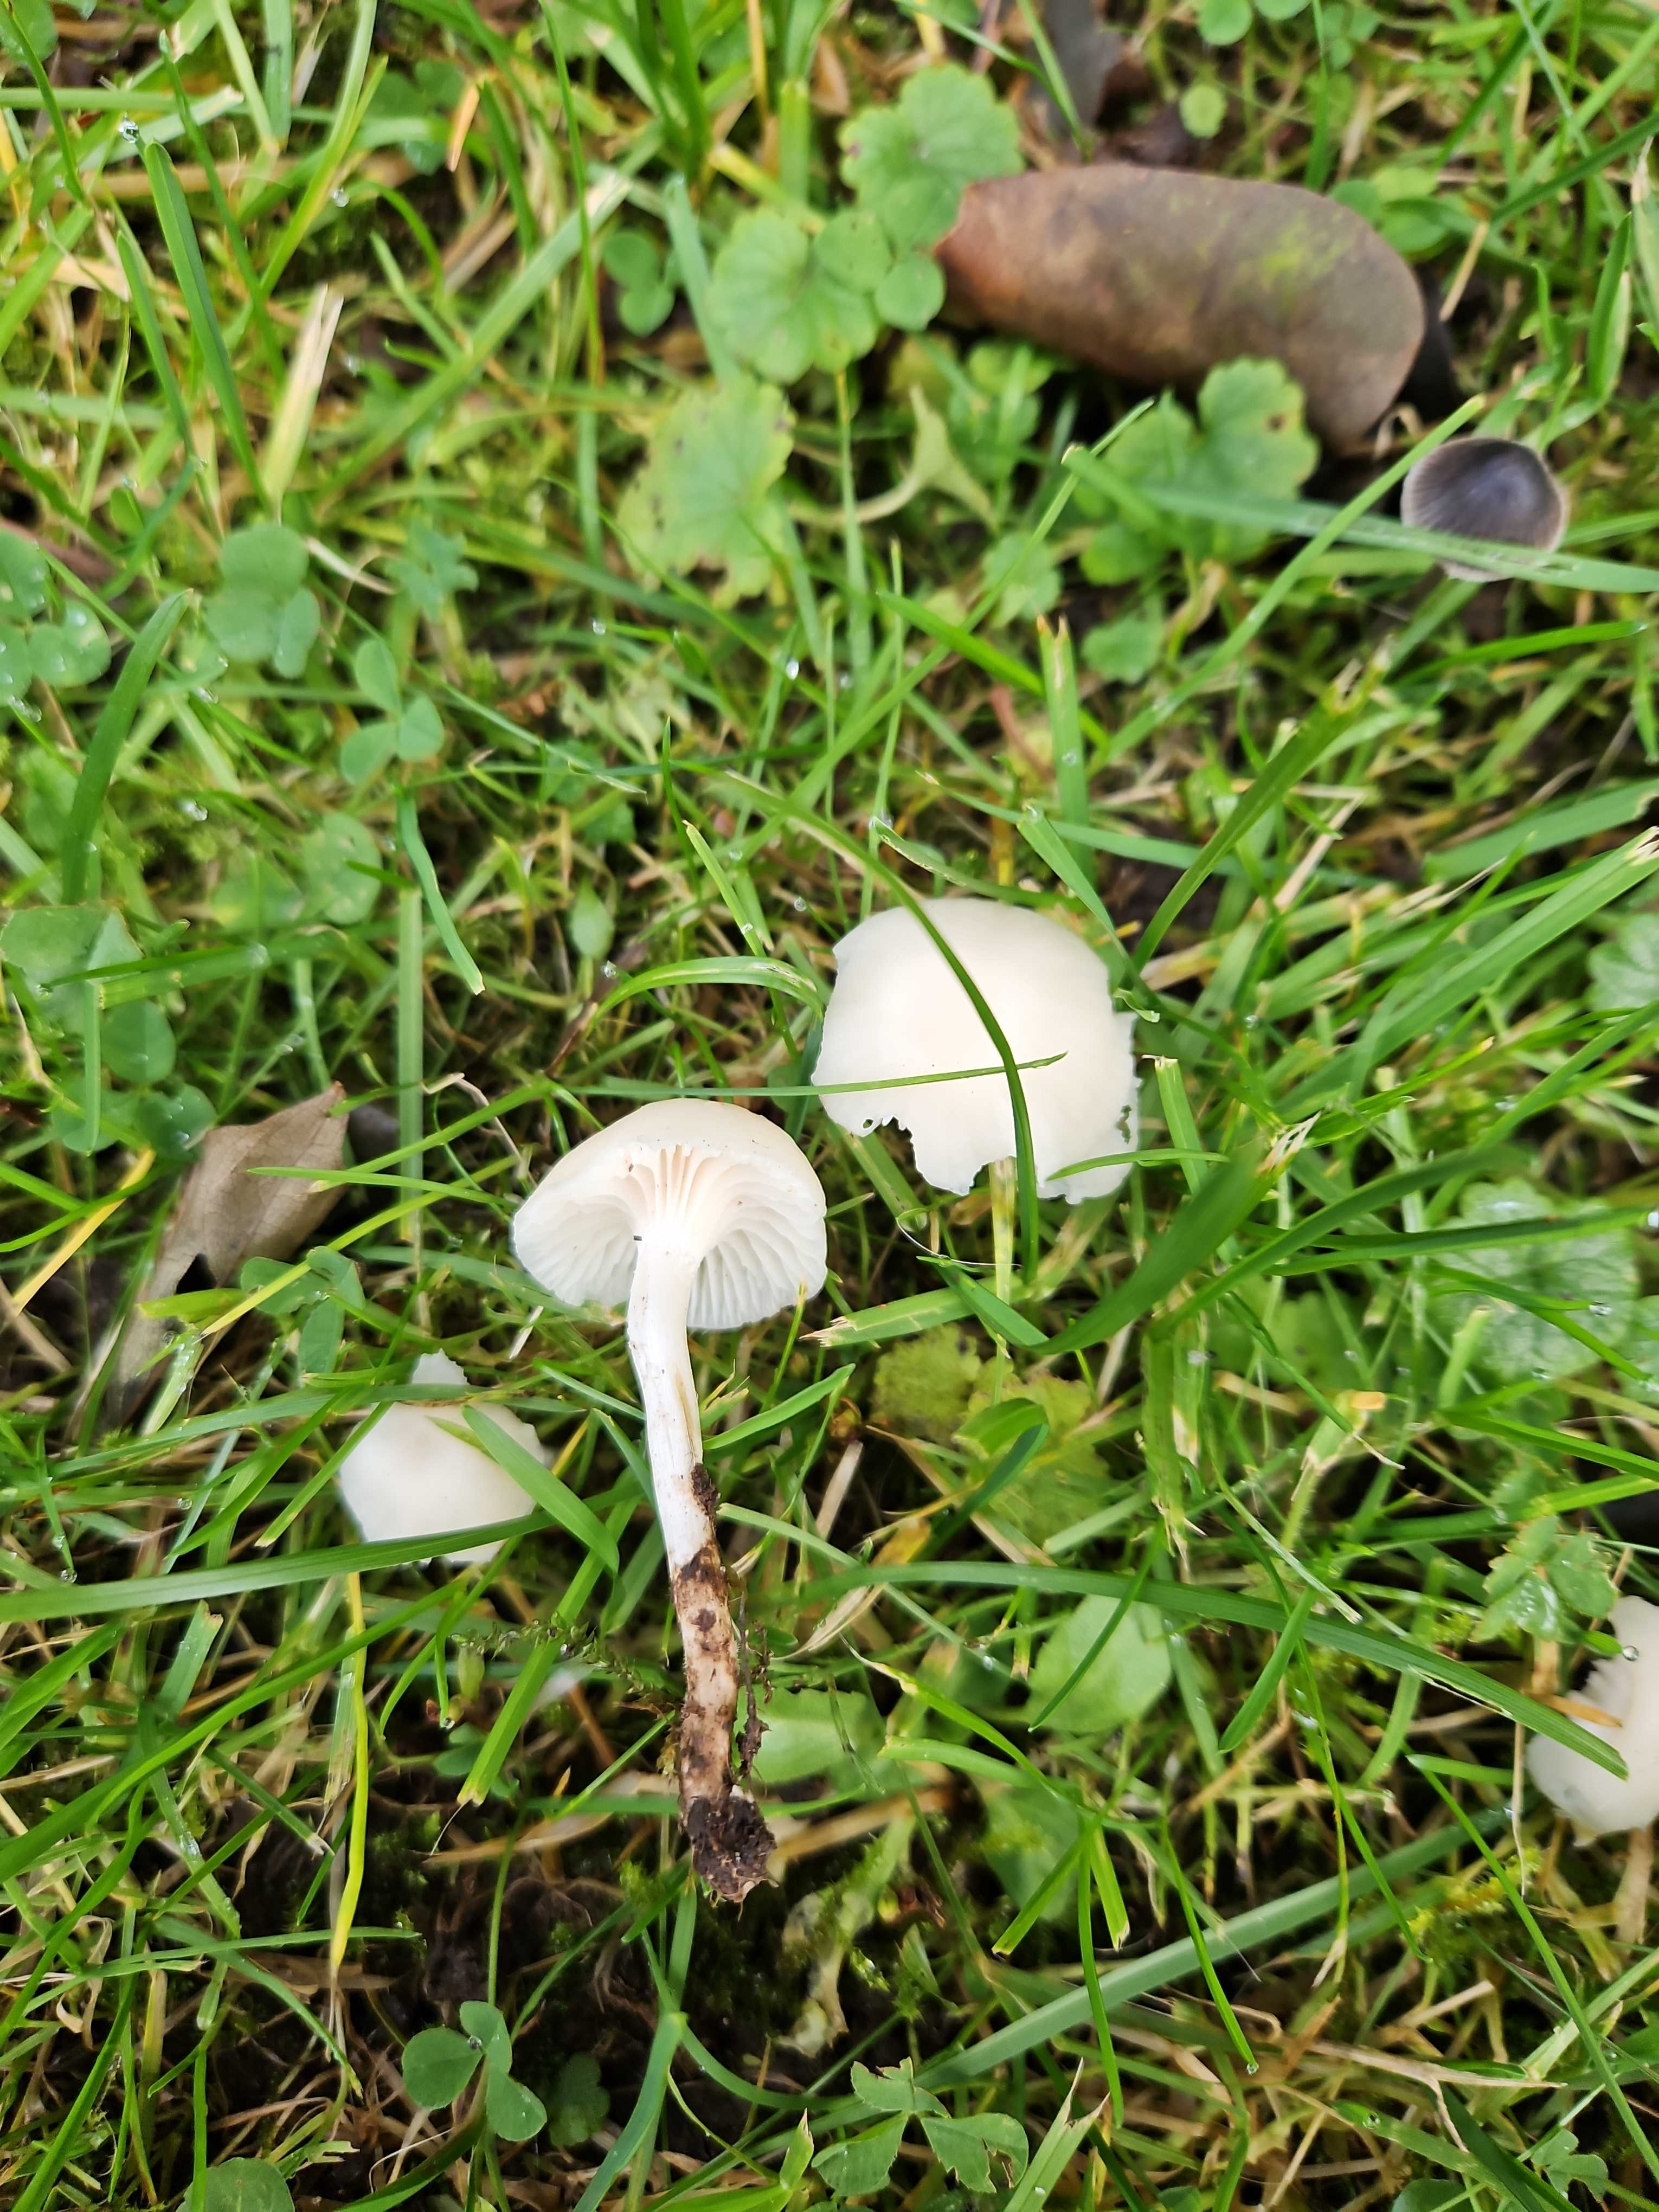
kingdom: Fungi
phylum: Basidiomycota
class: Agaricomycetes
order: Agaricales
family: Hygrophoraceae
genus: Cuphophyllus
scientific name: Cuphophyllus virgineus
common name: snehvid vokshat
